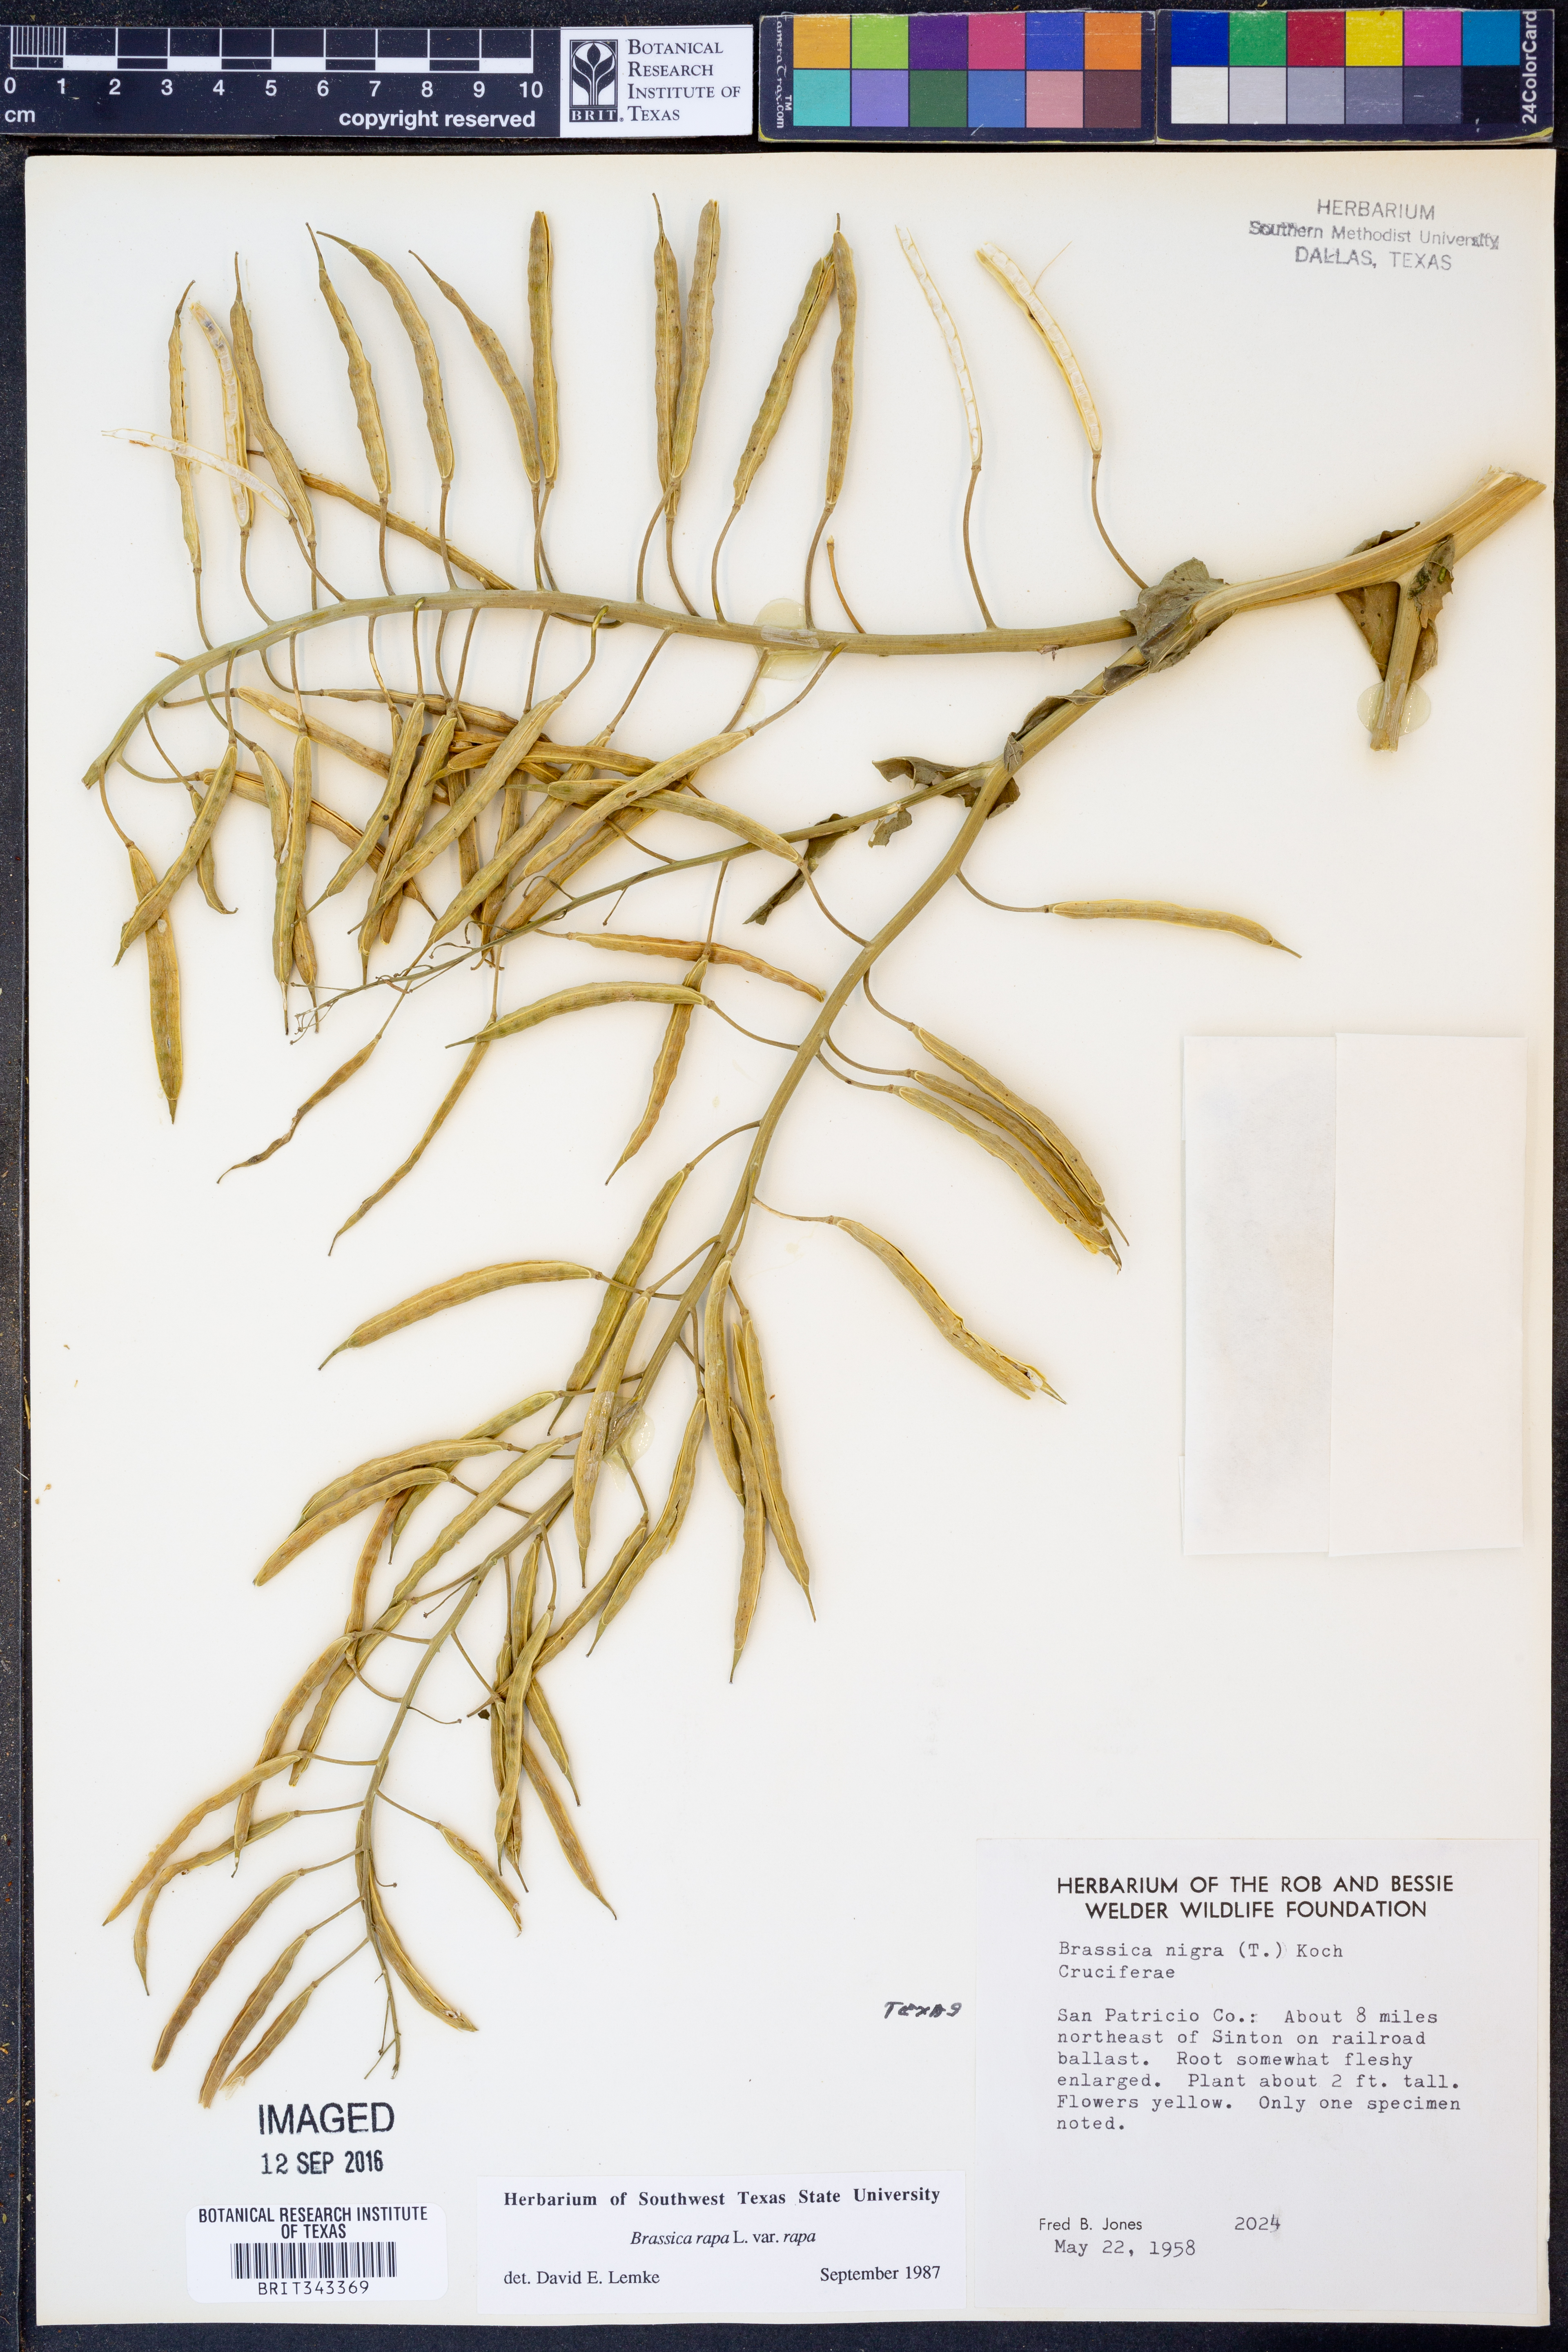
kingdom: Plantae
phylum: Tracheophyta
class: Magnoliopsida
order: Brassicales
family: Brassicaceae
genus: Brassica
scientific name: Brassica rapa
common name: Field mustard
